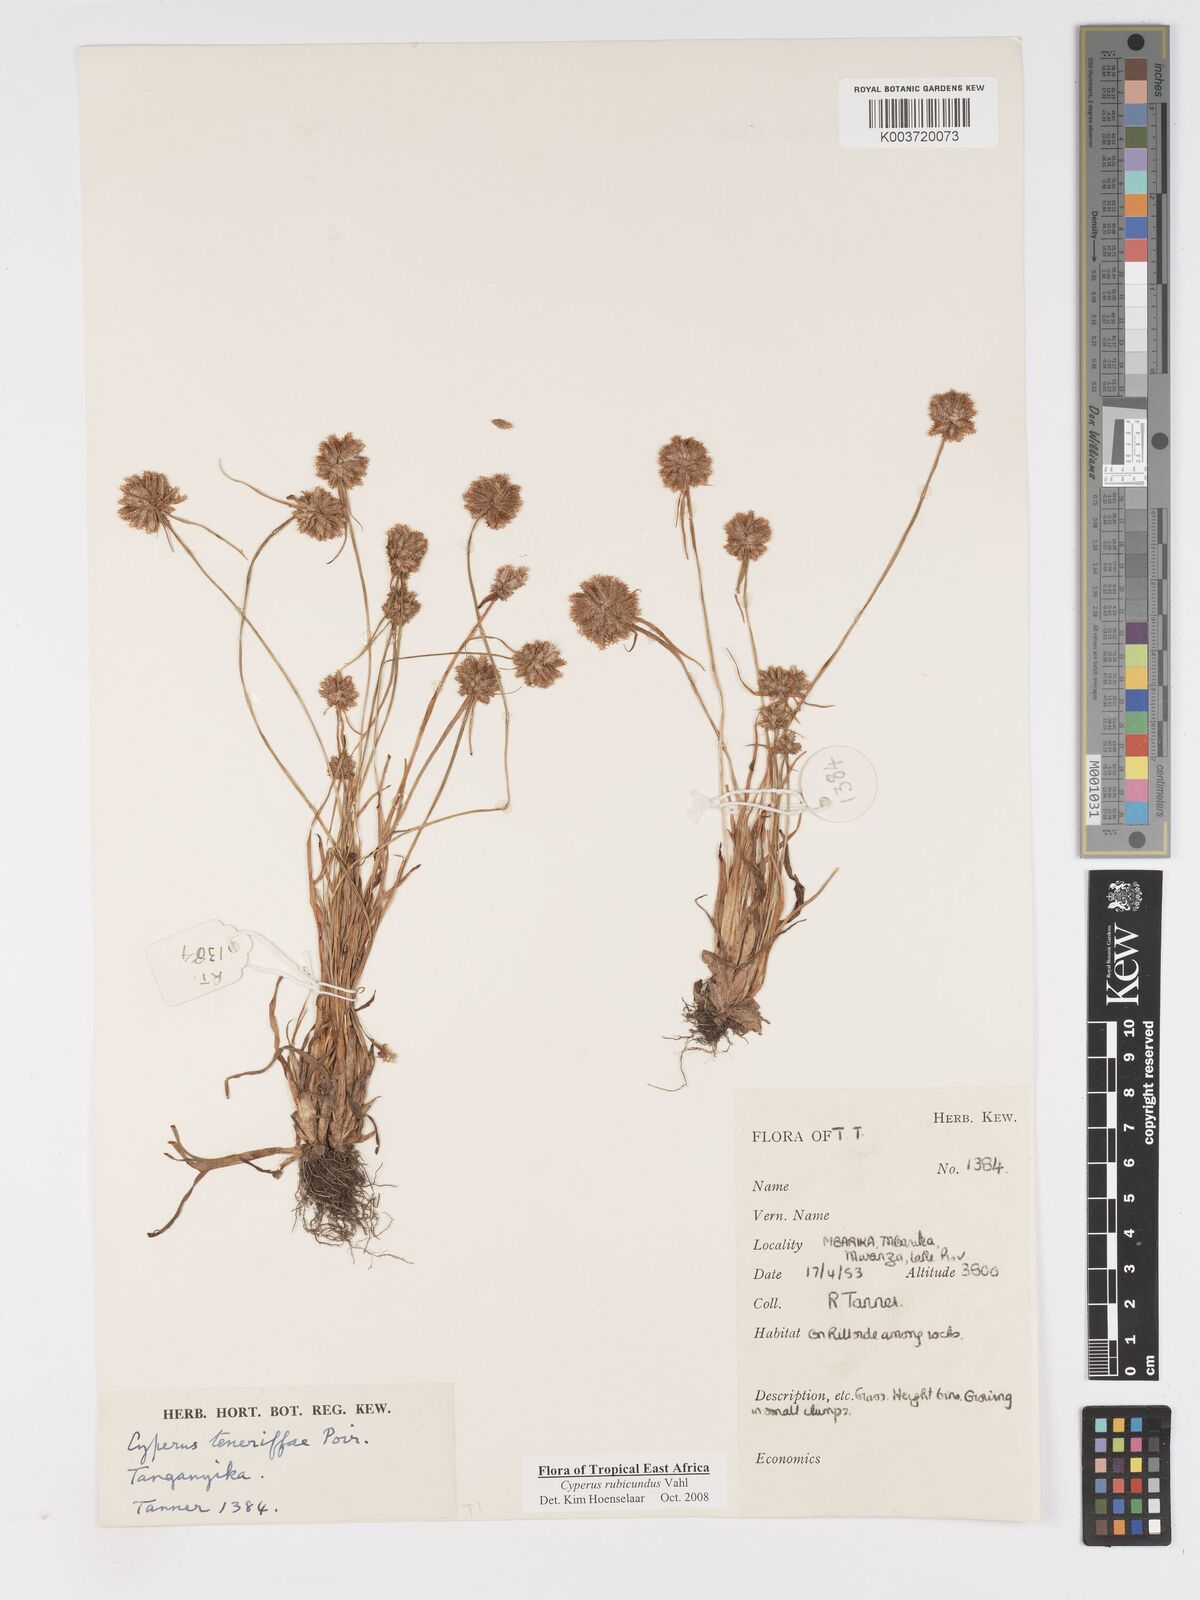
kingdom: Plantae
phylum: Tracheophyta
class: Liliopsida
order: Poales
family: Cyperaceae
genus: Cyperus
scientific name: Cyperus rubicundus
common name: Coco-grass
